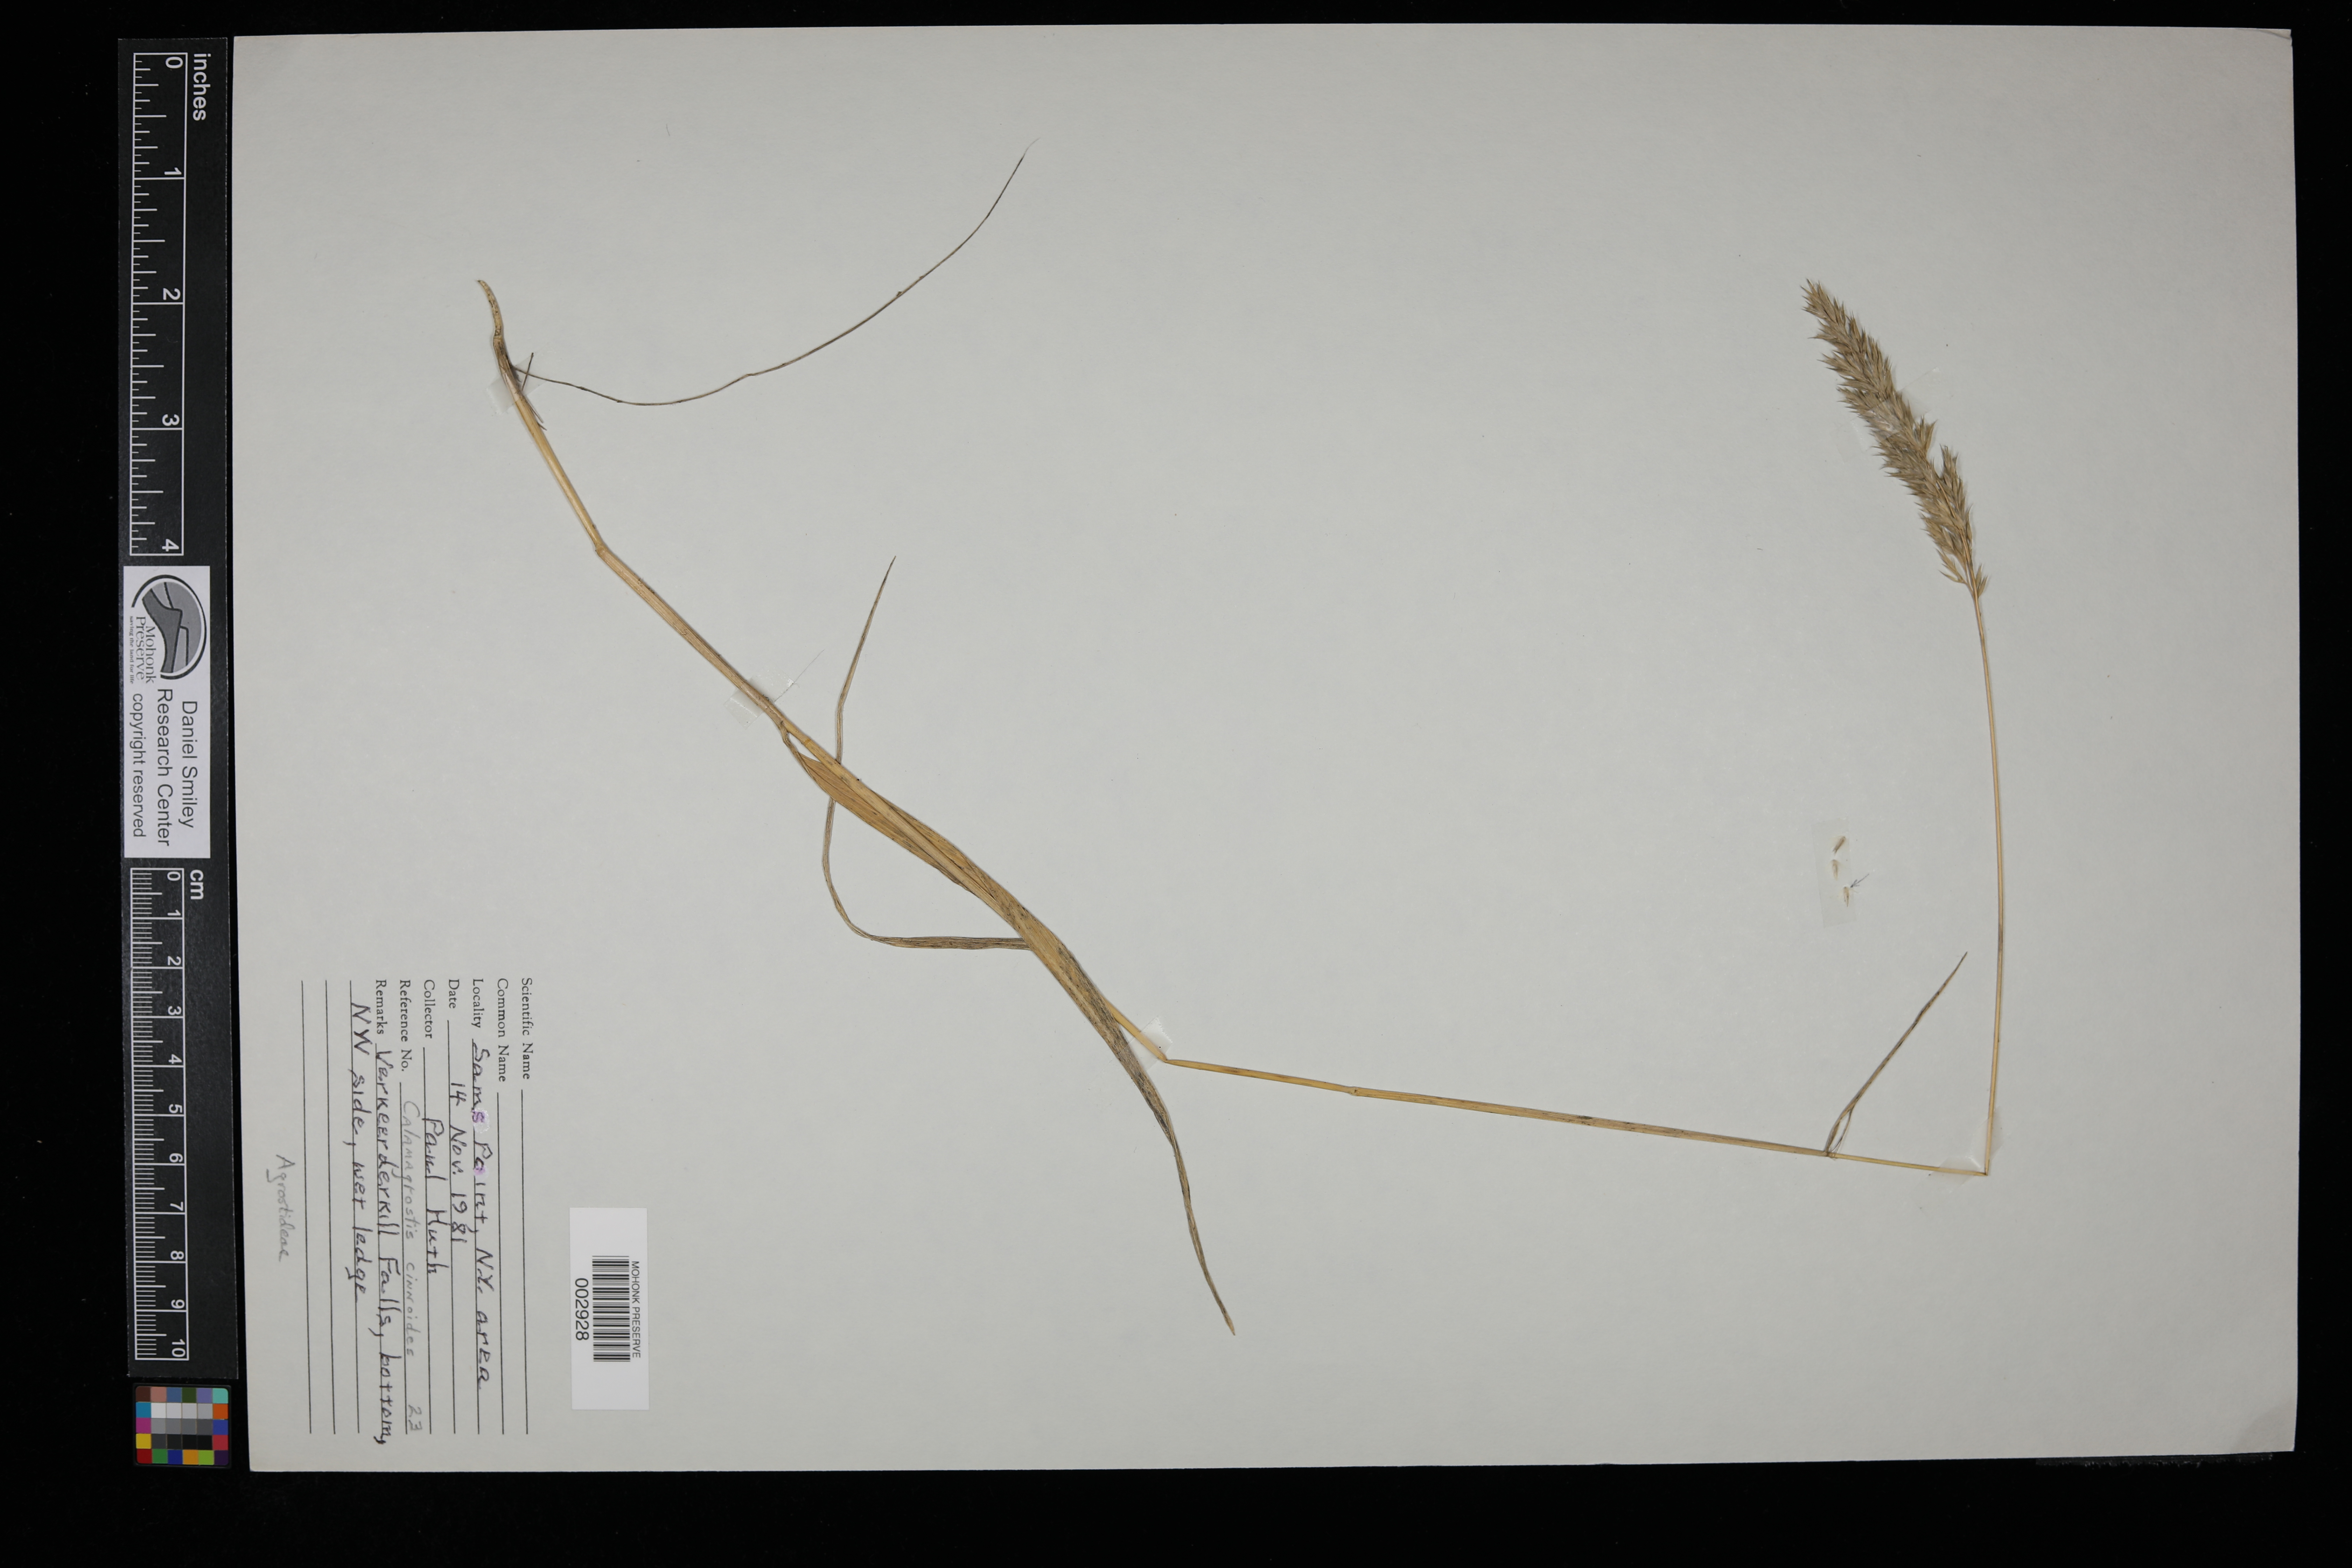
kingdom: Plantae
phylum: Tracheophyta
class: Liliopsida
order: Poales
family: Poaceae
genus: Calamagrostis
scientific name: Calamagrostis canadensis
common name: Canada bluejoint
